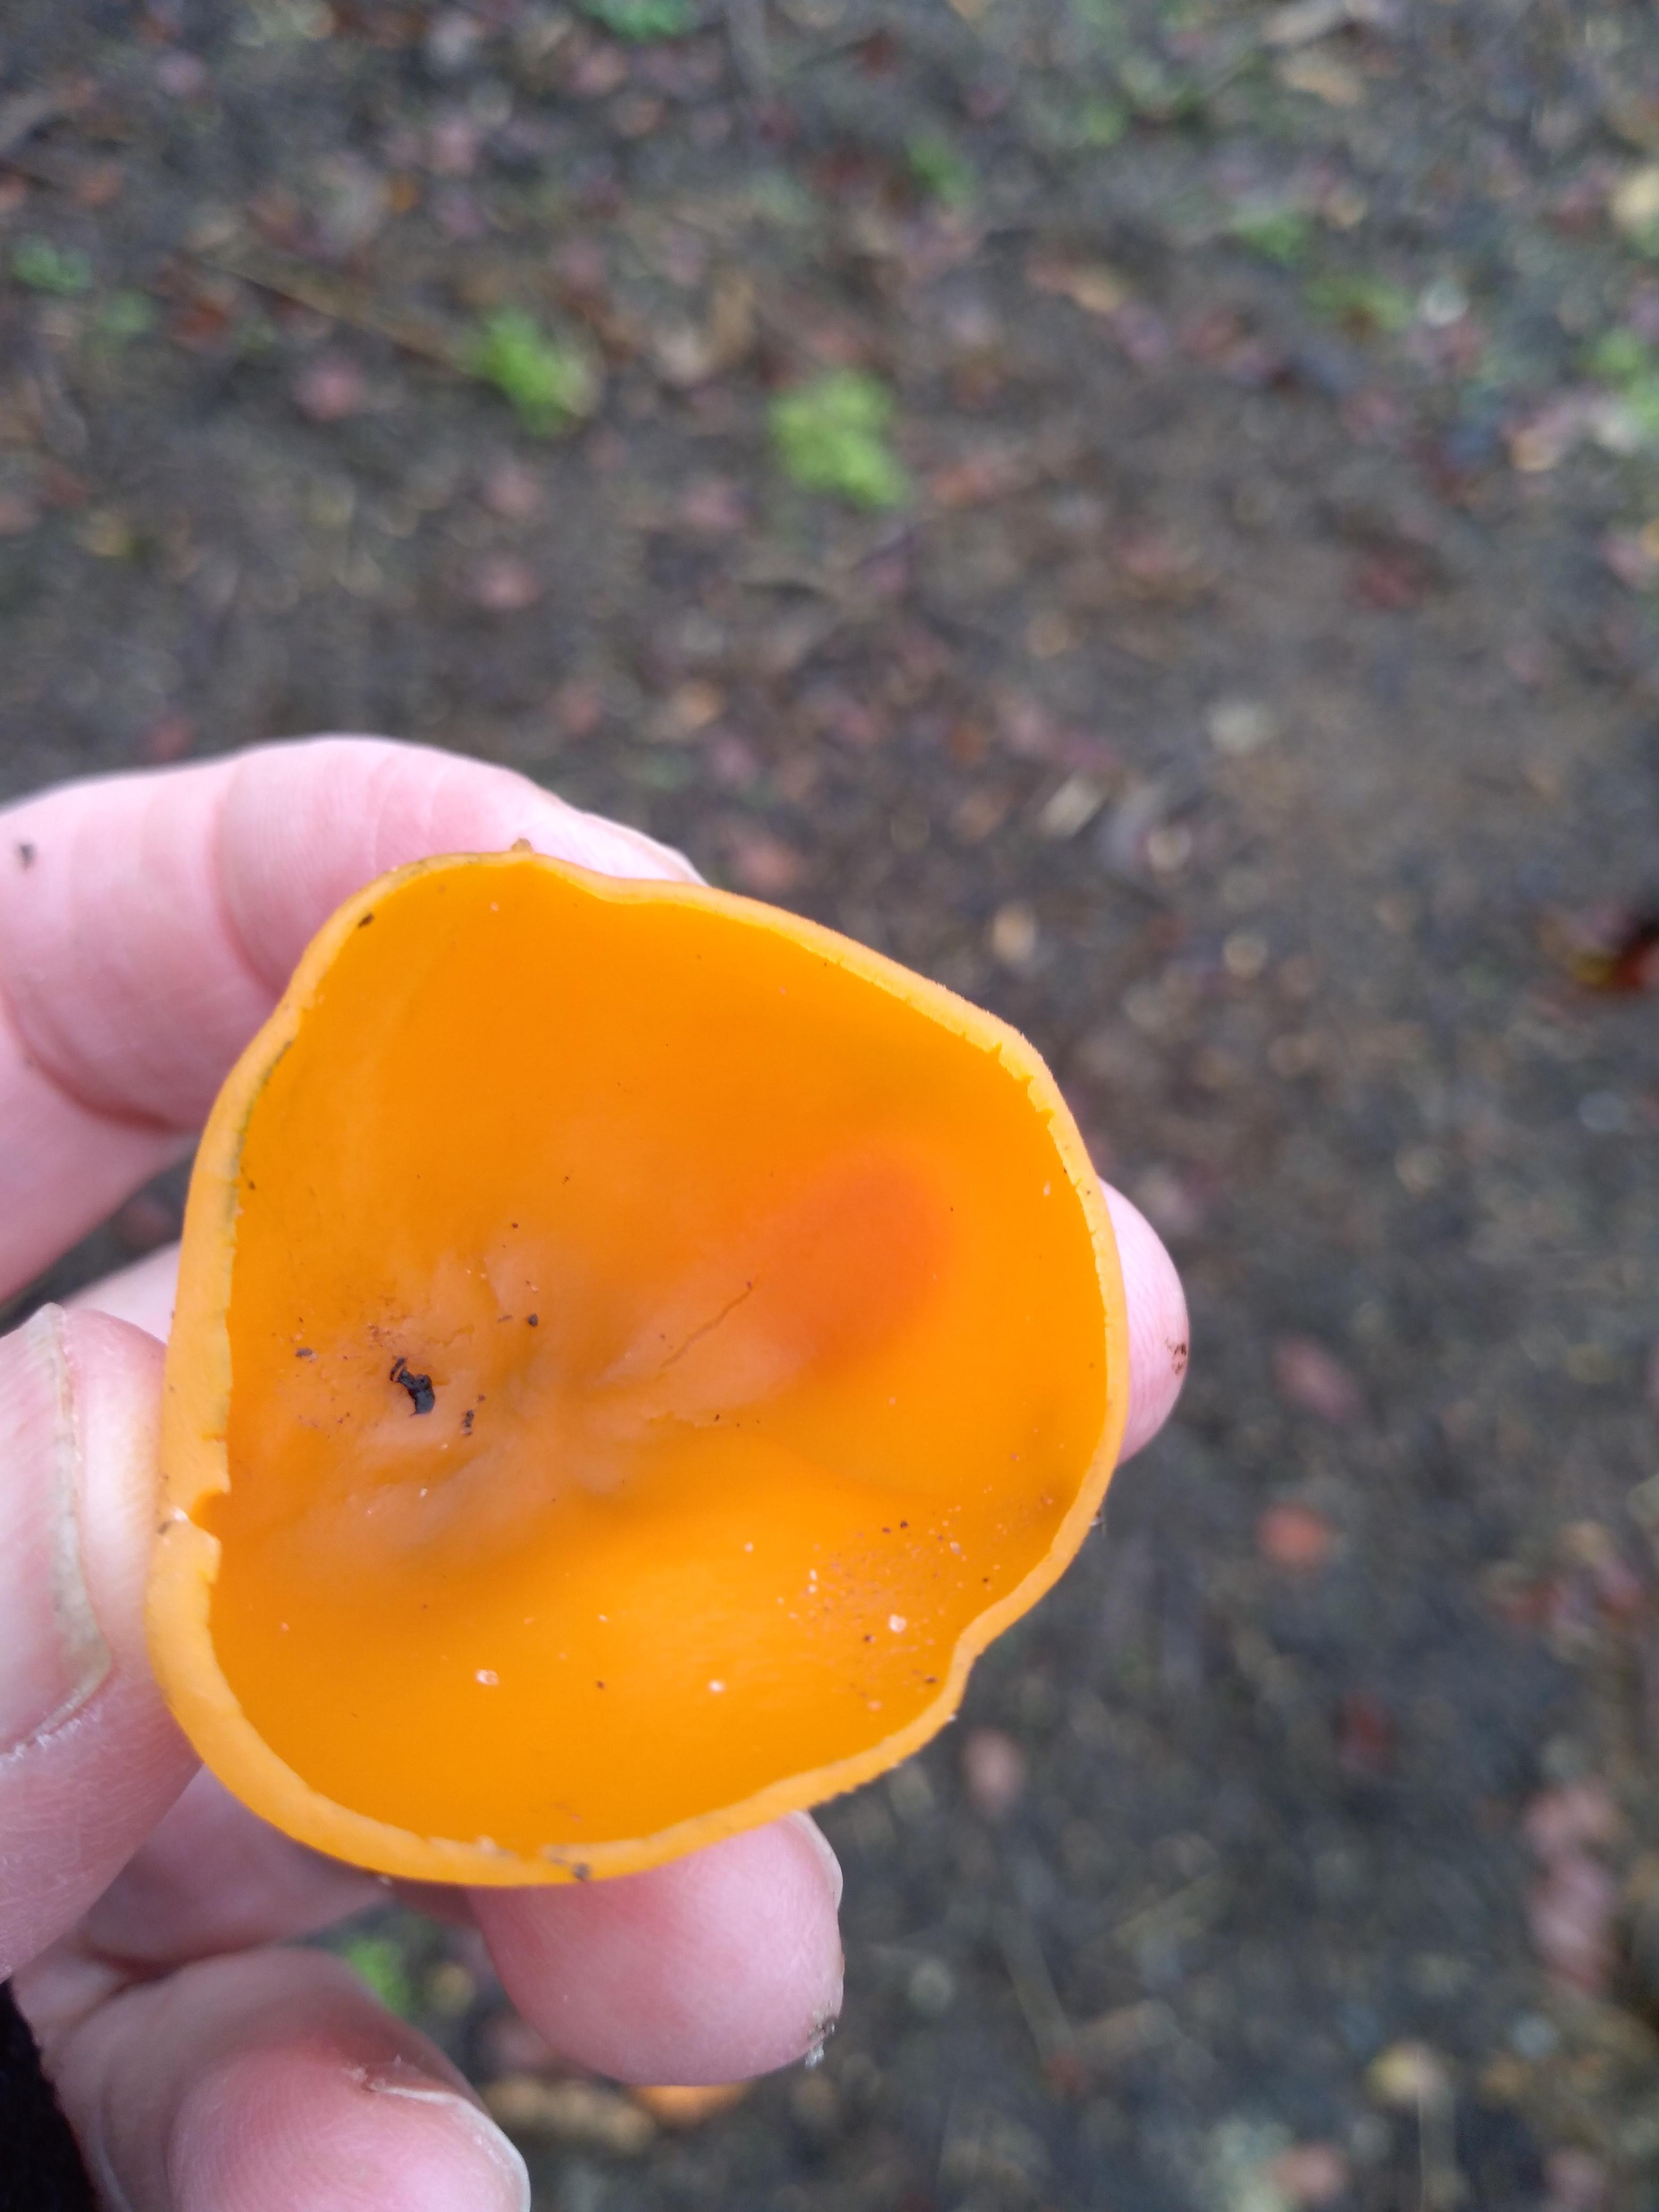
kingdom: Fungi
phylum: Ascomycota
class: Pezizomycetes
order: Pezizales
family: Pyronemataceae
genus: Aleuria
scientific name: Aleuria aurantia
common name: almindelig orangebæger
